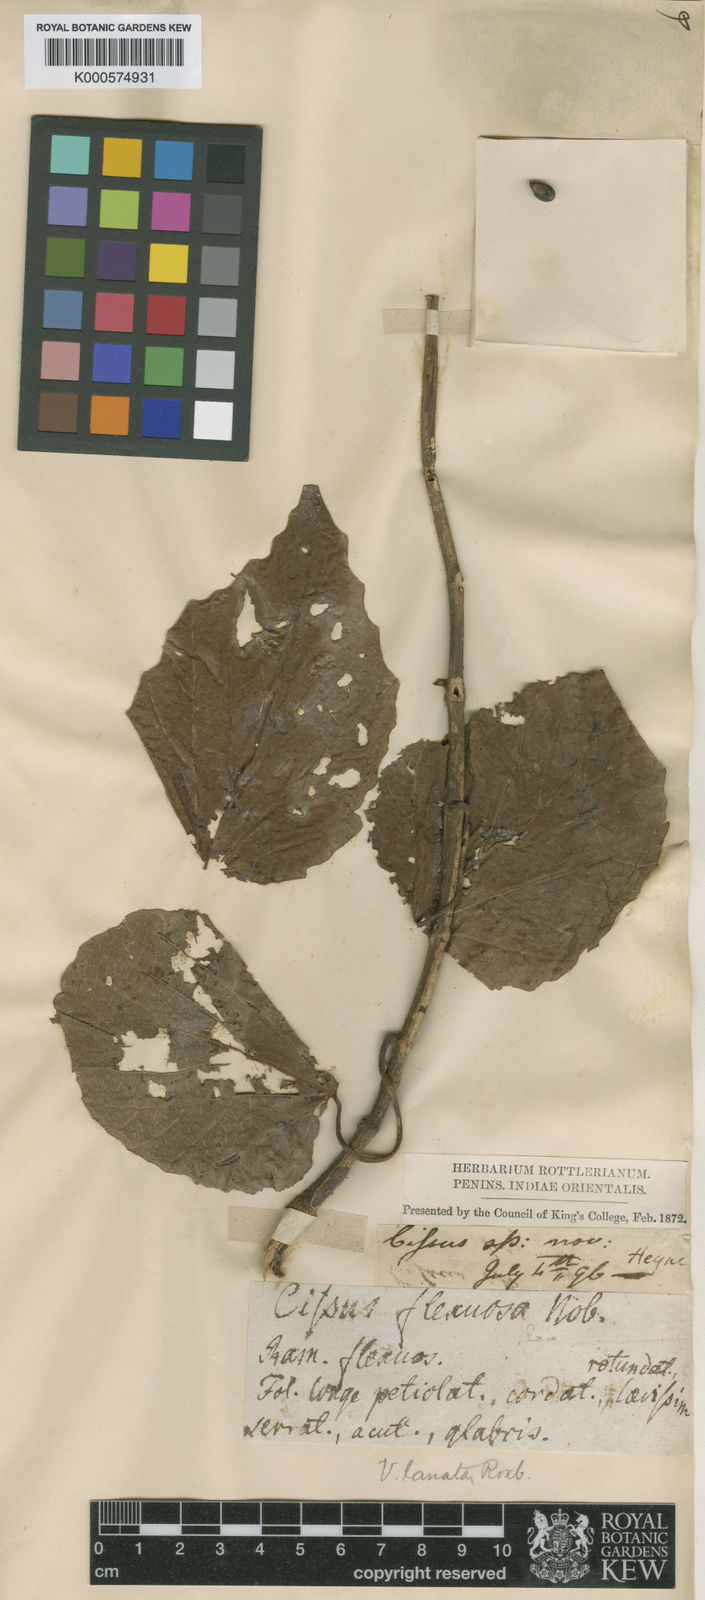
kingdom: Plantae
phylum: Tracheophyta
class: Magnoliopsida
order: Vitales
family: Vitaceae
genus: Vitis
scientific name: Vitis heyneana
